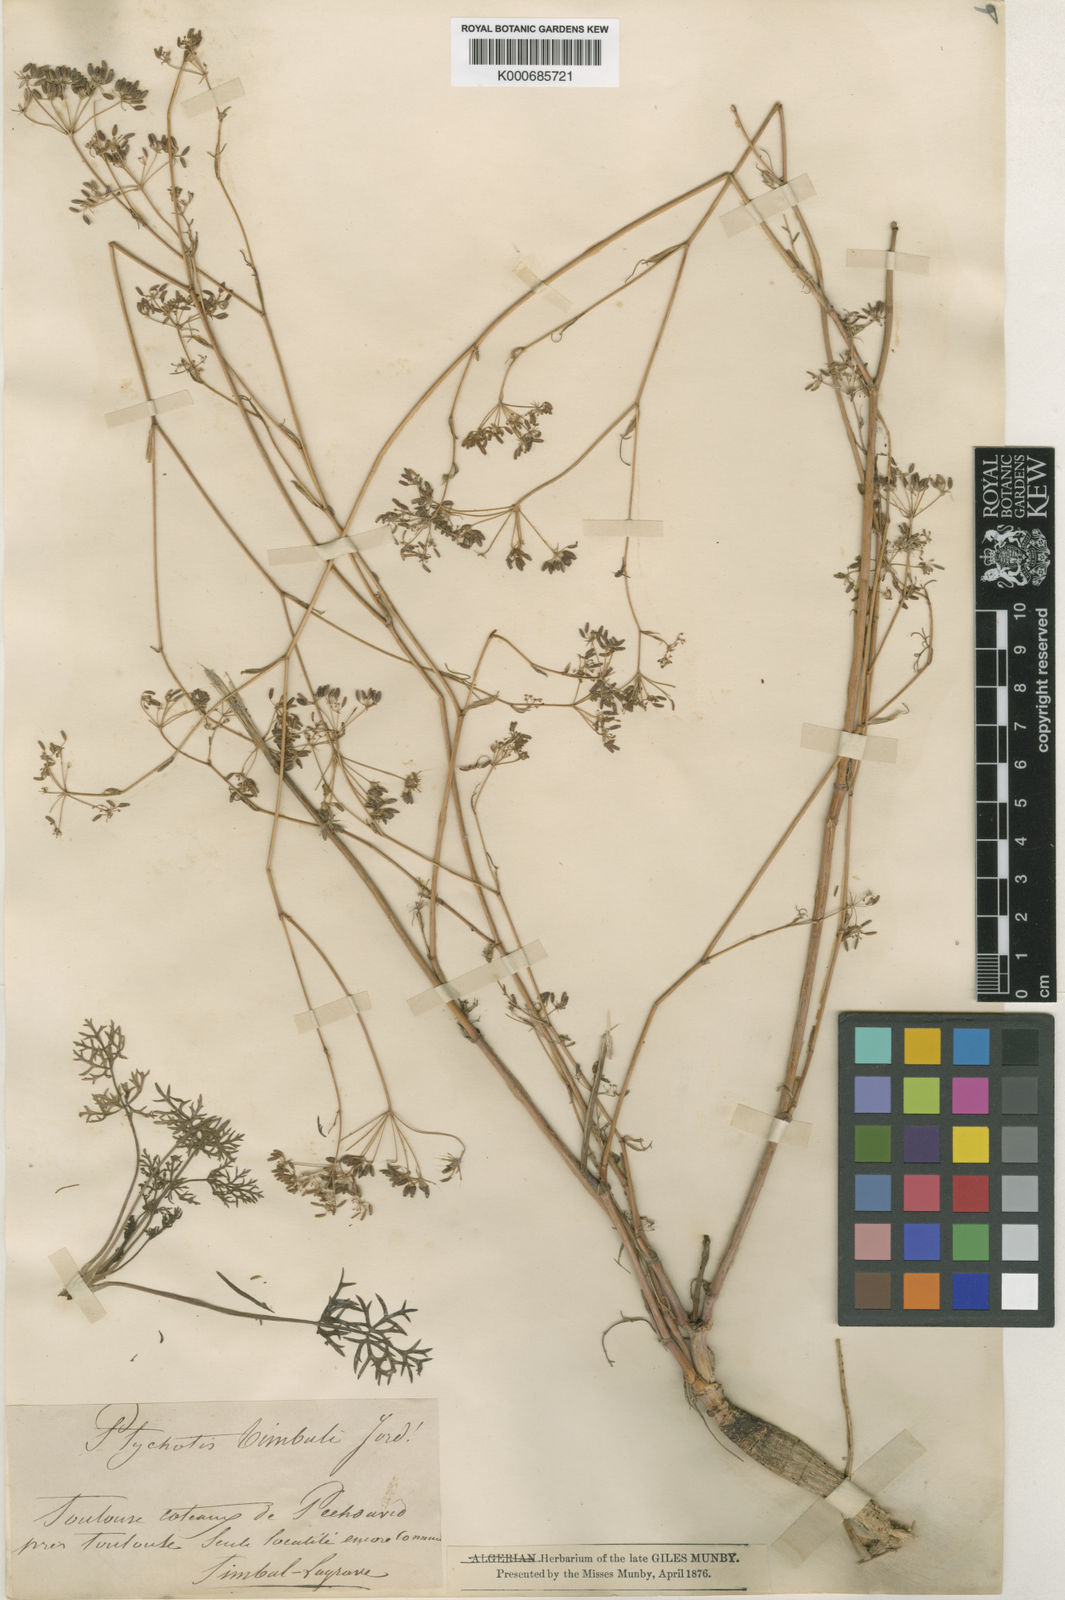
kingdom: Plantae
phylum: Tracheophyta
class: Magnoliopsida
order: Apiales
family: Apiaceae
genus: Ptychotis
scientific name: Ptychotis
